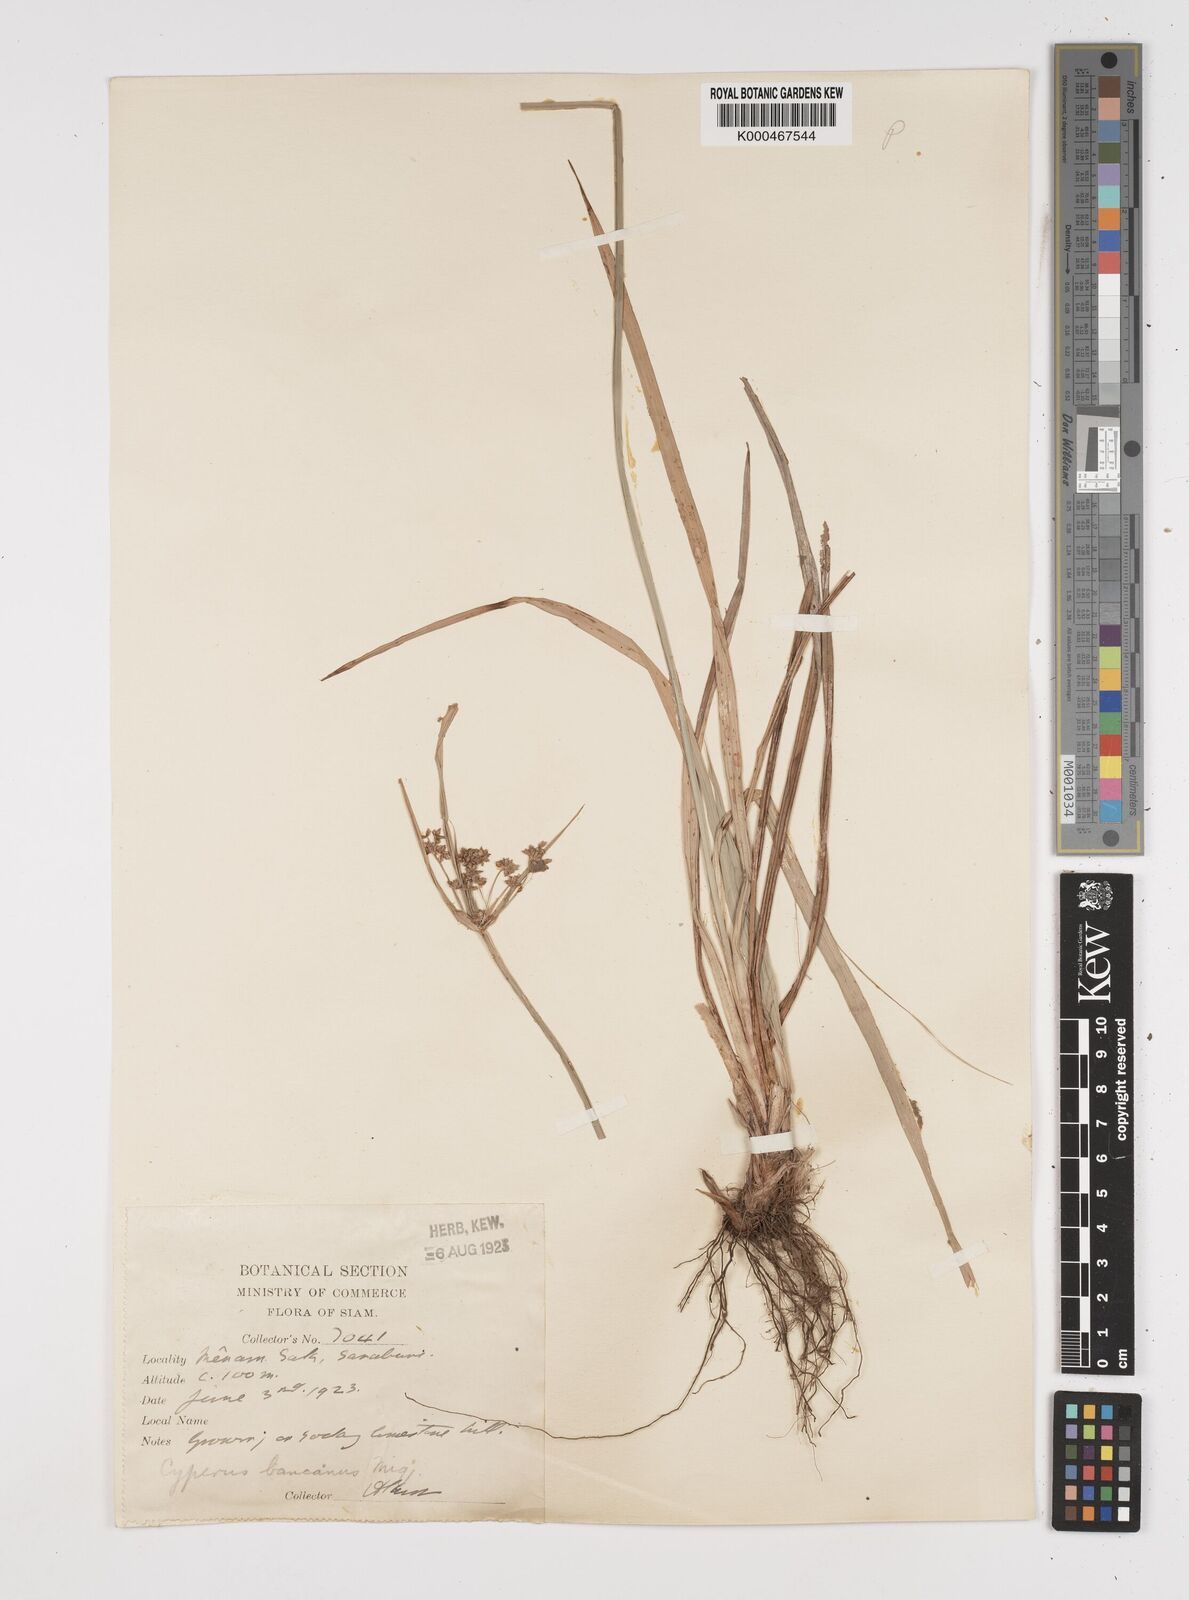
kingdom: Plantae
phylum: Tracheophyta
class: Liliopsida
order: Poales
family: Cyperaceae
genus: Cyperus
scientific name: Cyperus trialatus
